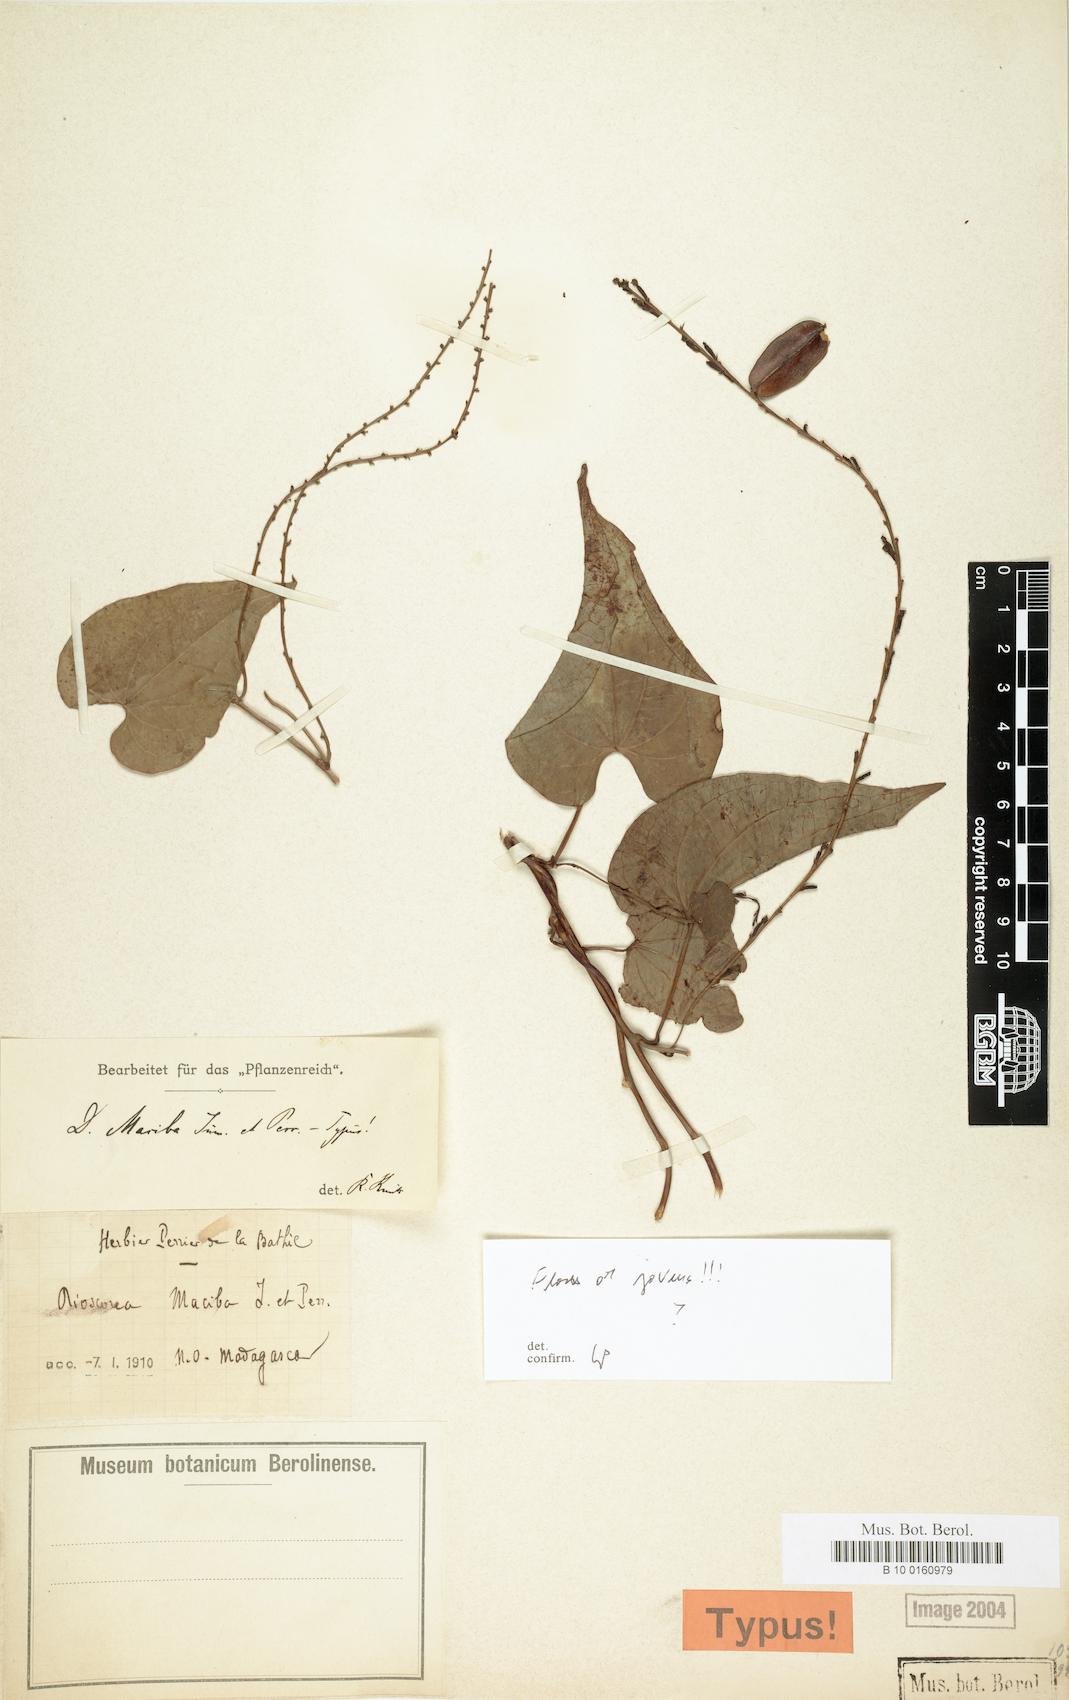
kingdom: Plantae
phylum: Tracheophyta
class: Liliopsida
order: Dioscoreales
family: Dioscoreaceae
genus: Dioscorea
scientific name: Dioscorea maciba
